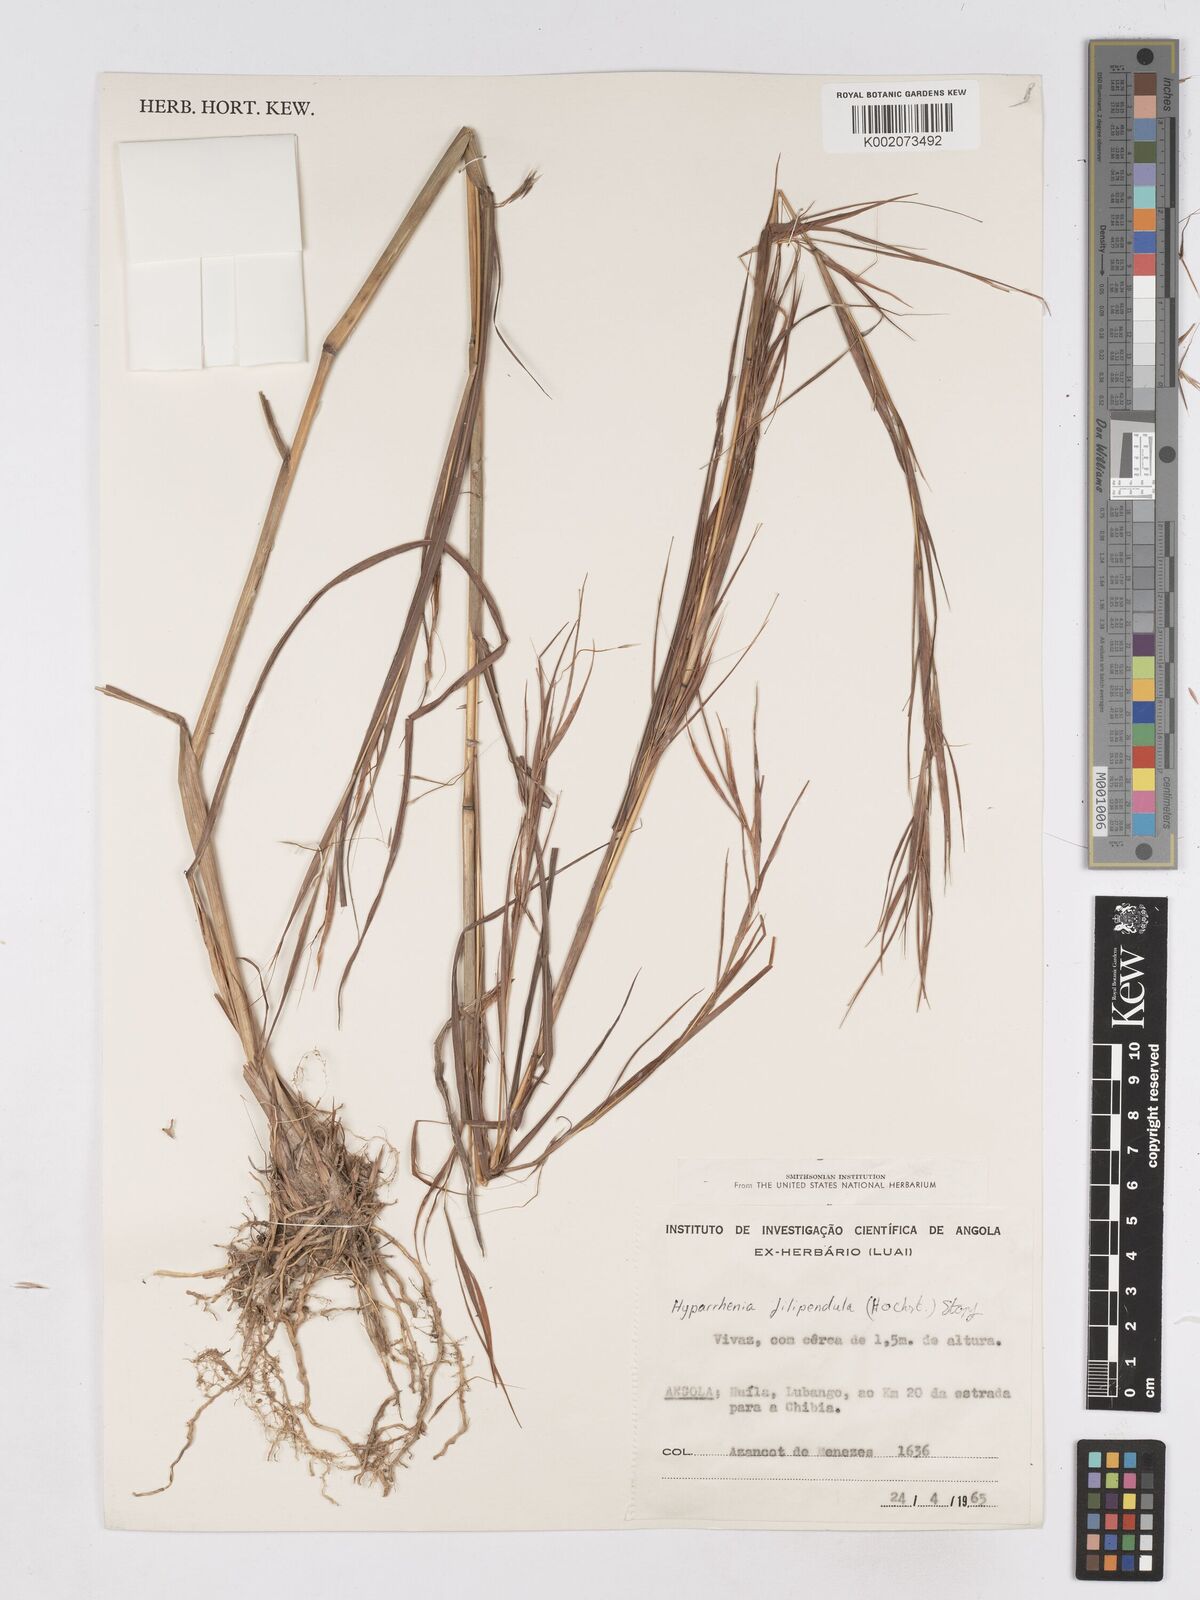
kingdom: Plantae
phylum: Tracheophyta
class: Liliopsida
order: Poales
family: Poaceae
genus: Hyparrhenia
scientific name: Hyparrhenia filipendula
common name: Tambookie grass
